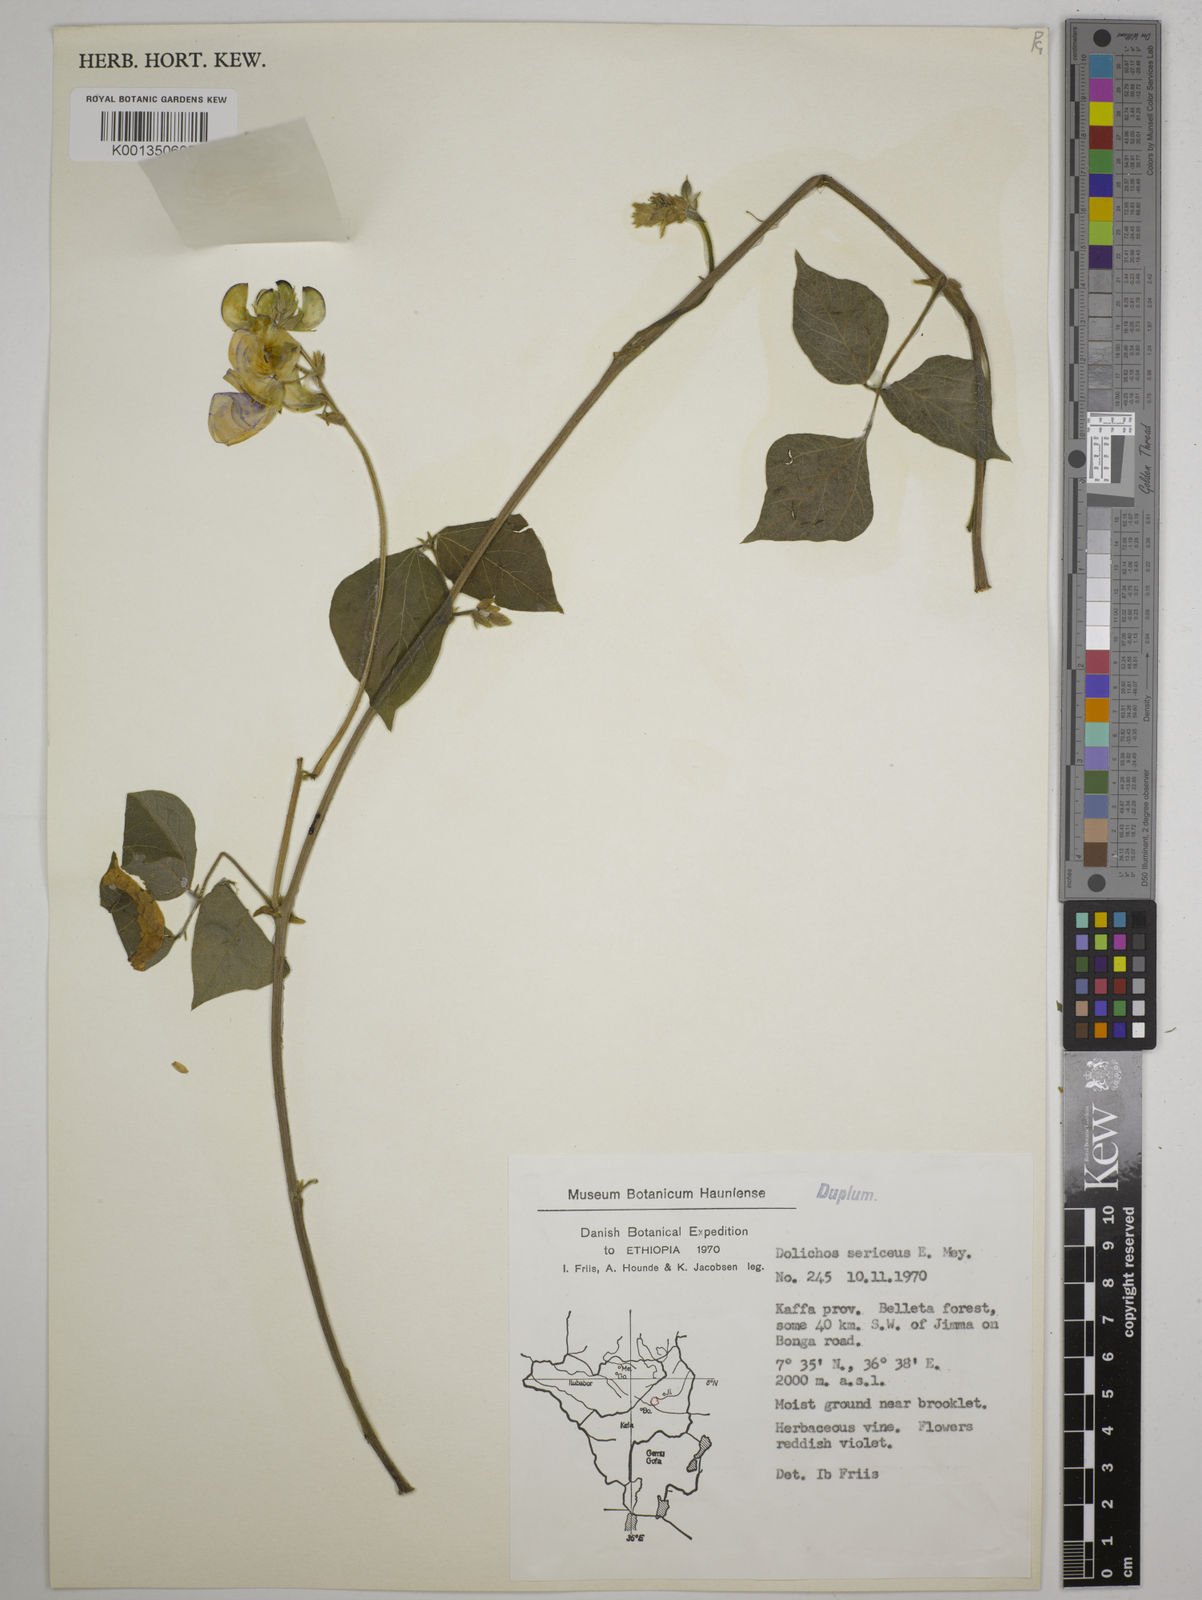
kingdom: Plantae
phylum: Tracheophyta
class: Magnoliopsida
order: Fabales
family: Fabaceae
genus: Dolichos
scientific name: Dolichos
